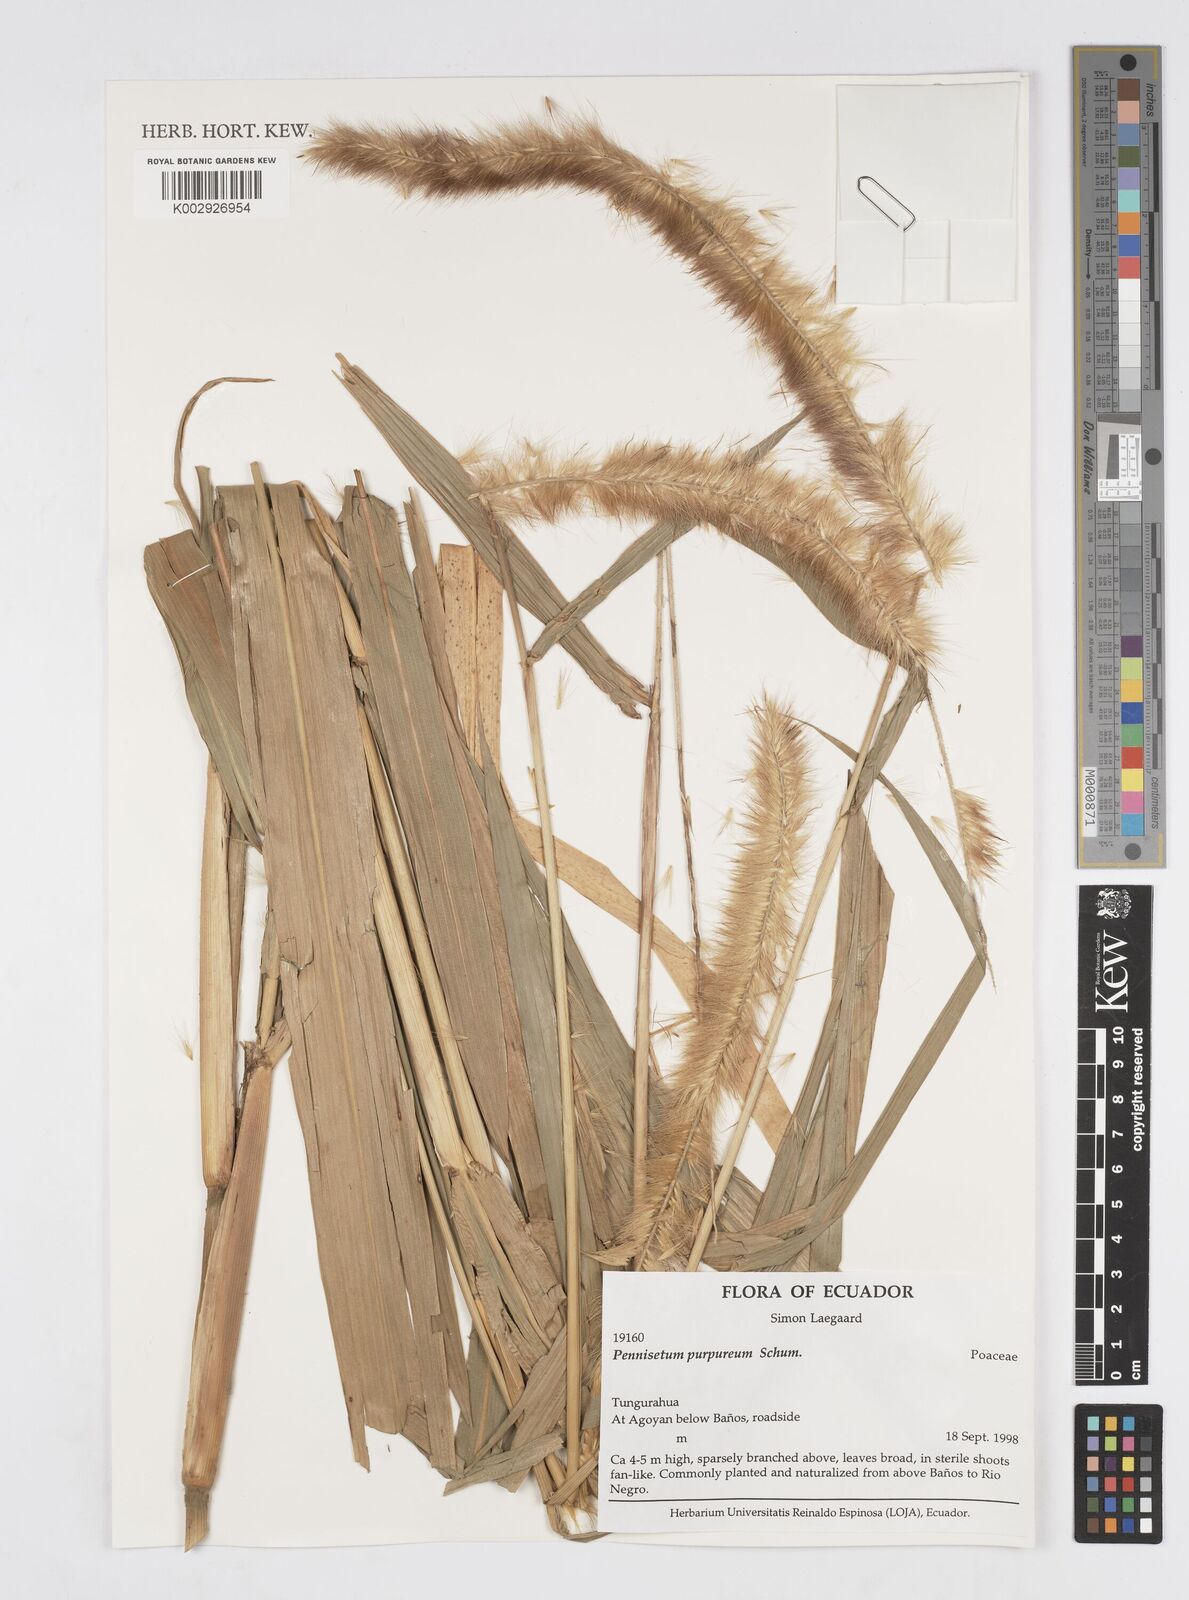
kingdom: Plantae
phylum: Tracheophyta
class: Liliopsida
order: Poales
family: Poaceae
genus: Cenchrus
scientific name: Cenchrus Pennisetum spec
